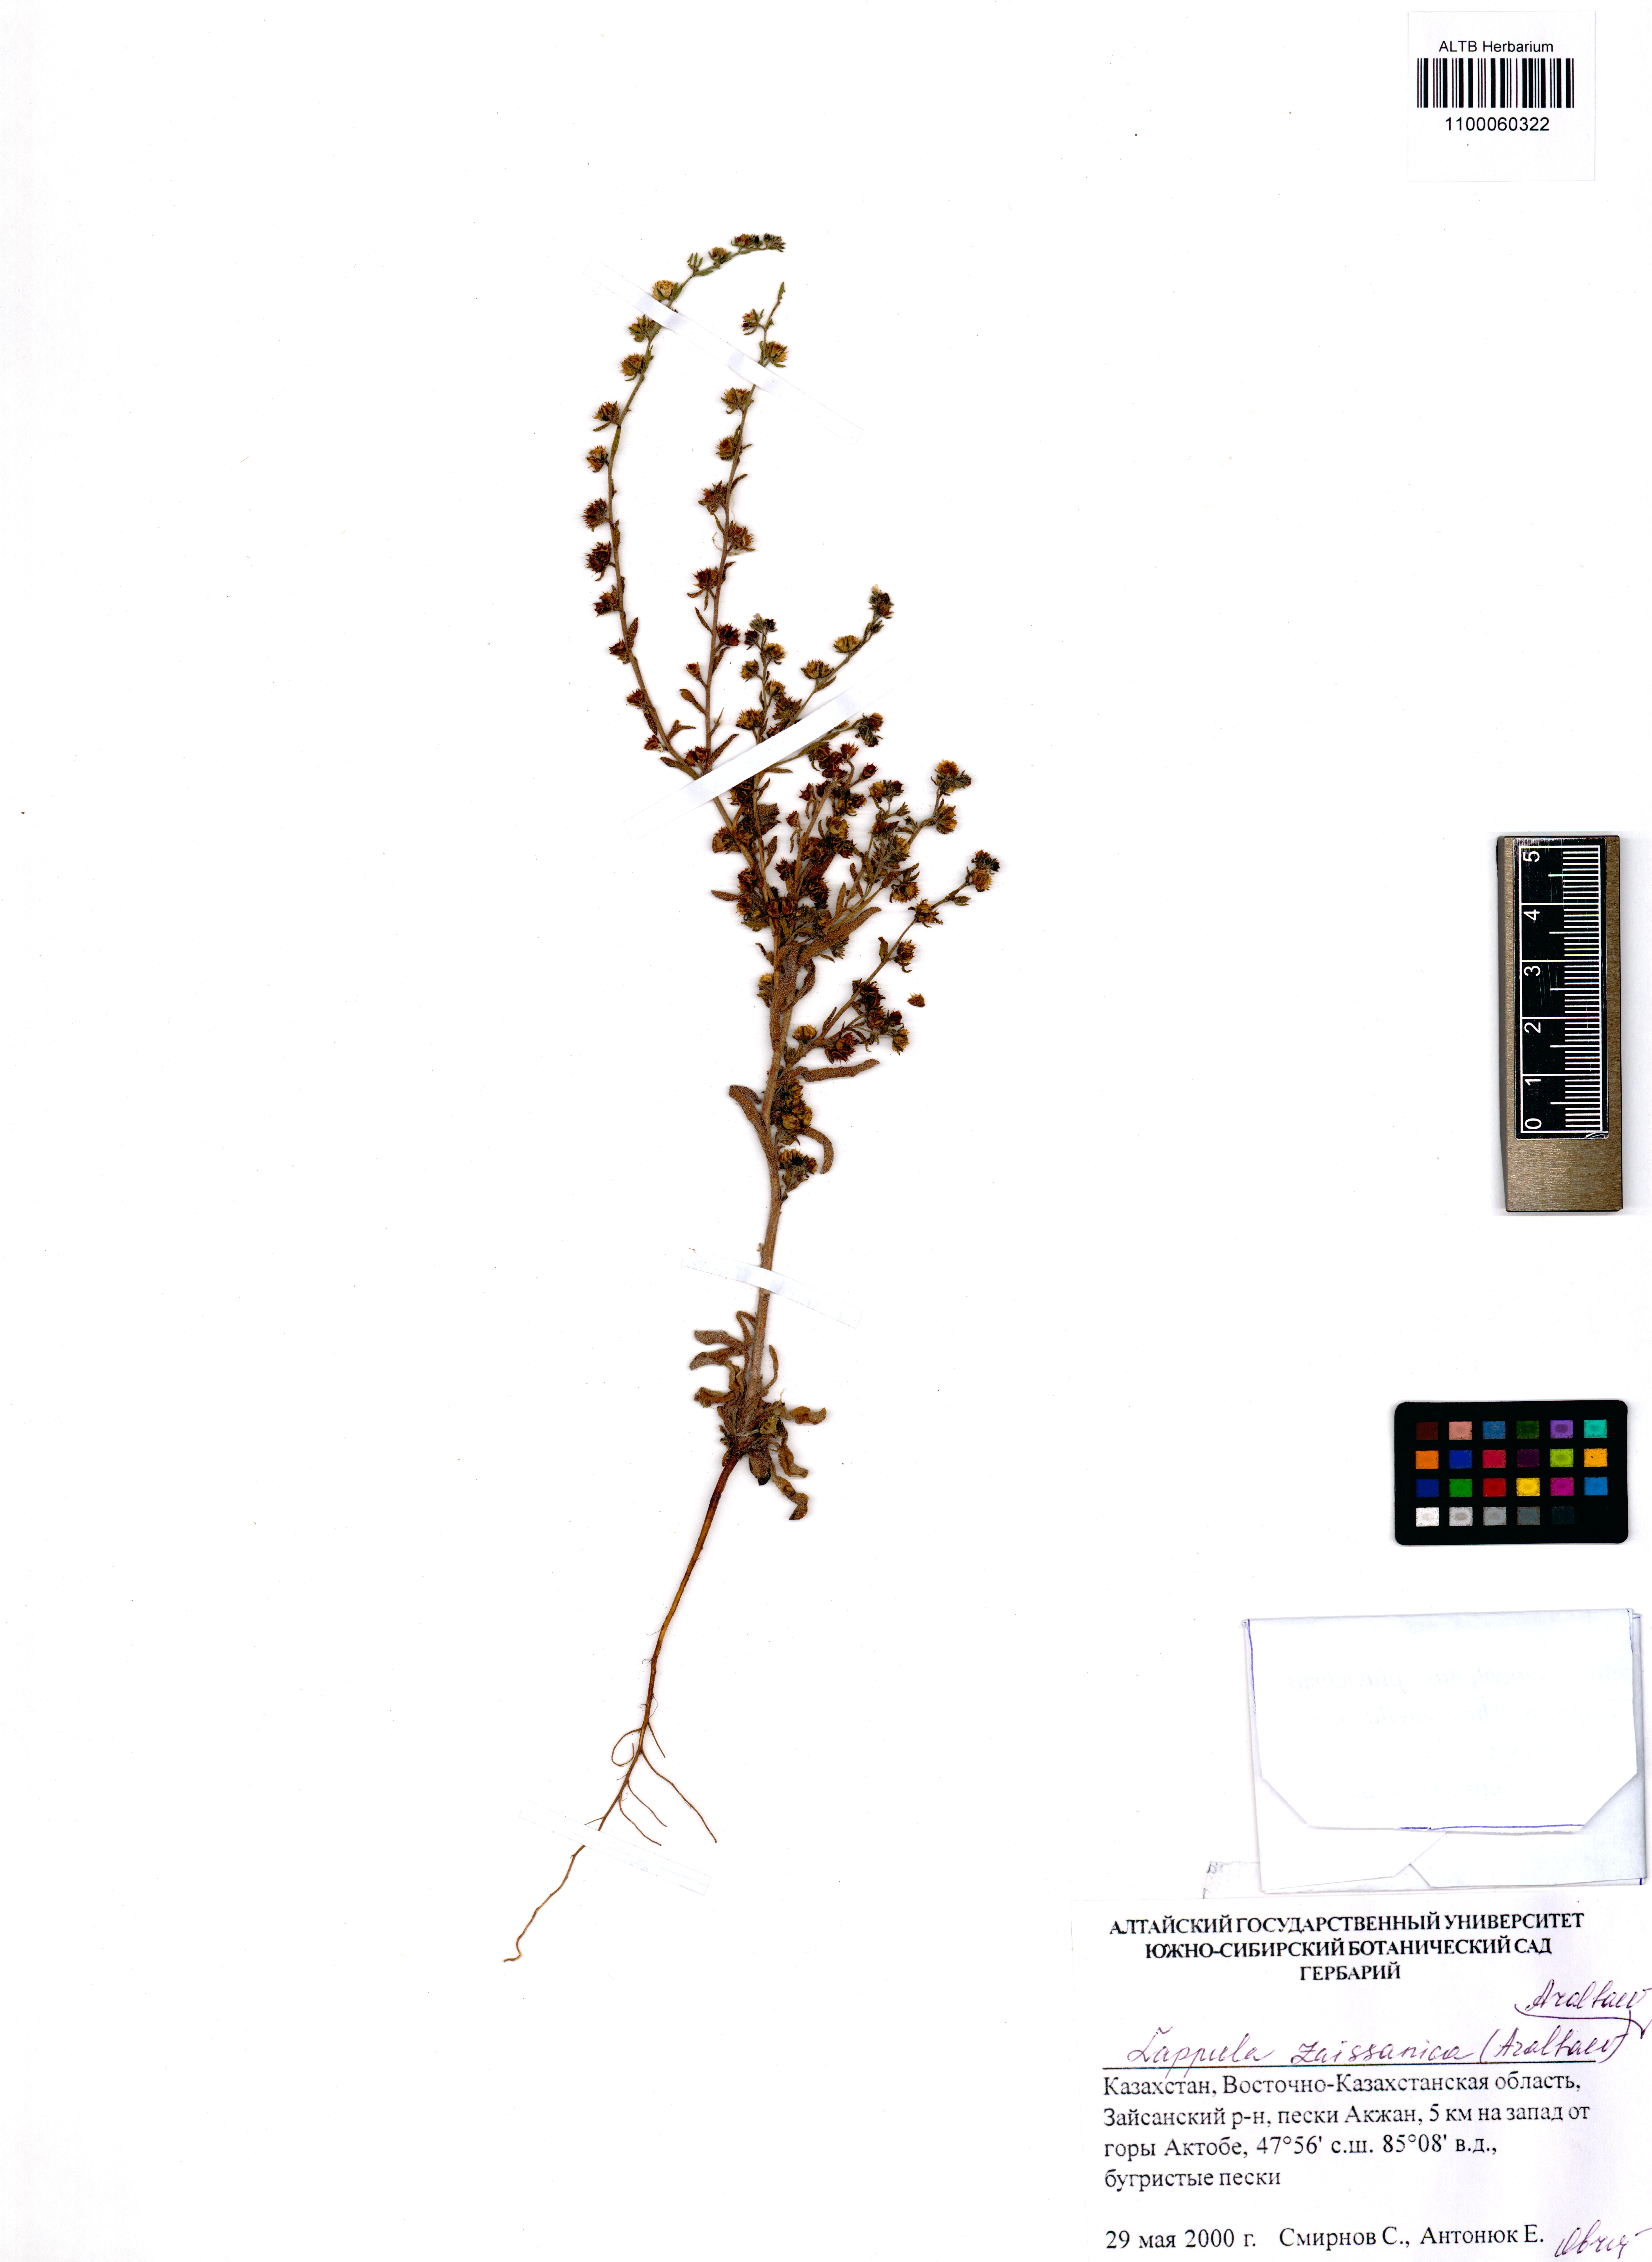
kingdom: Plantae
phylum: Tracheophyta
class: Magnoliopsida
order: Boraginales
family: Boraginaceae
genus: Lappula
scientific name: Lappula zaissanica
